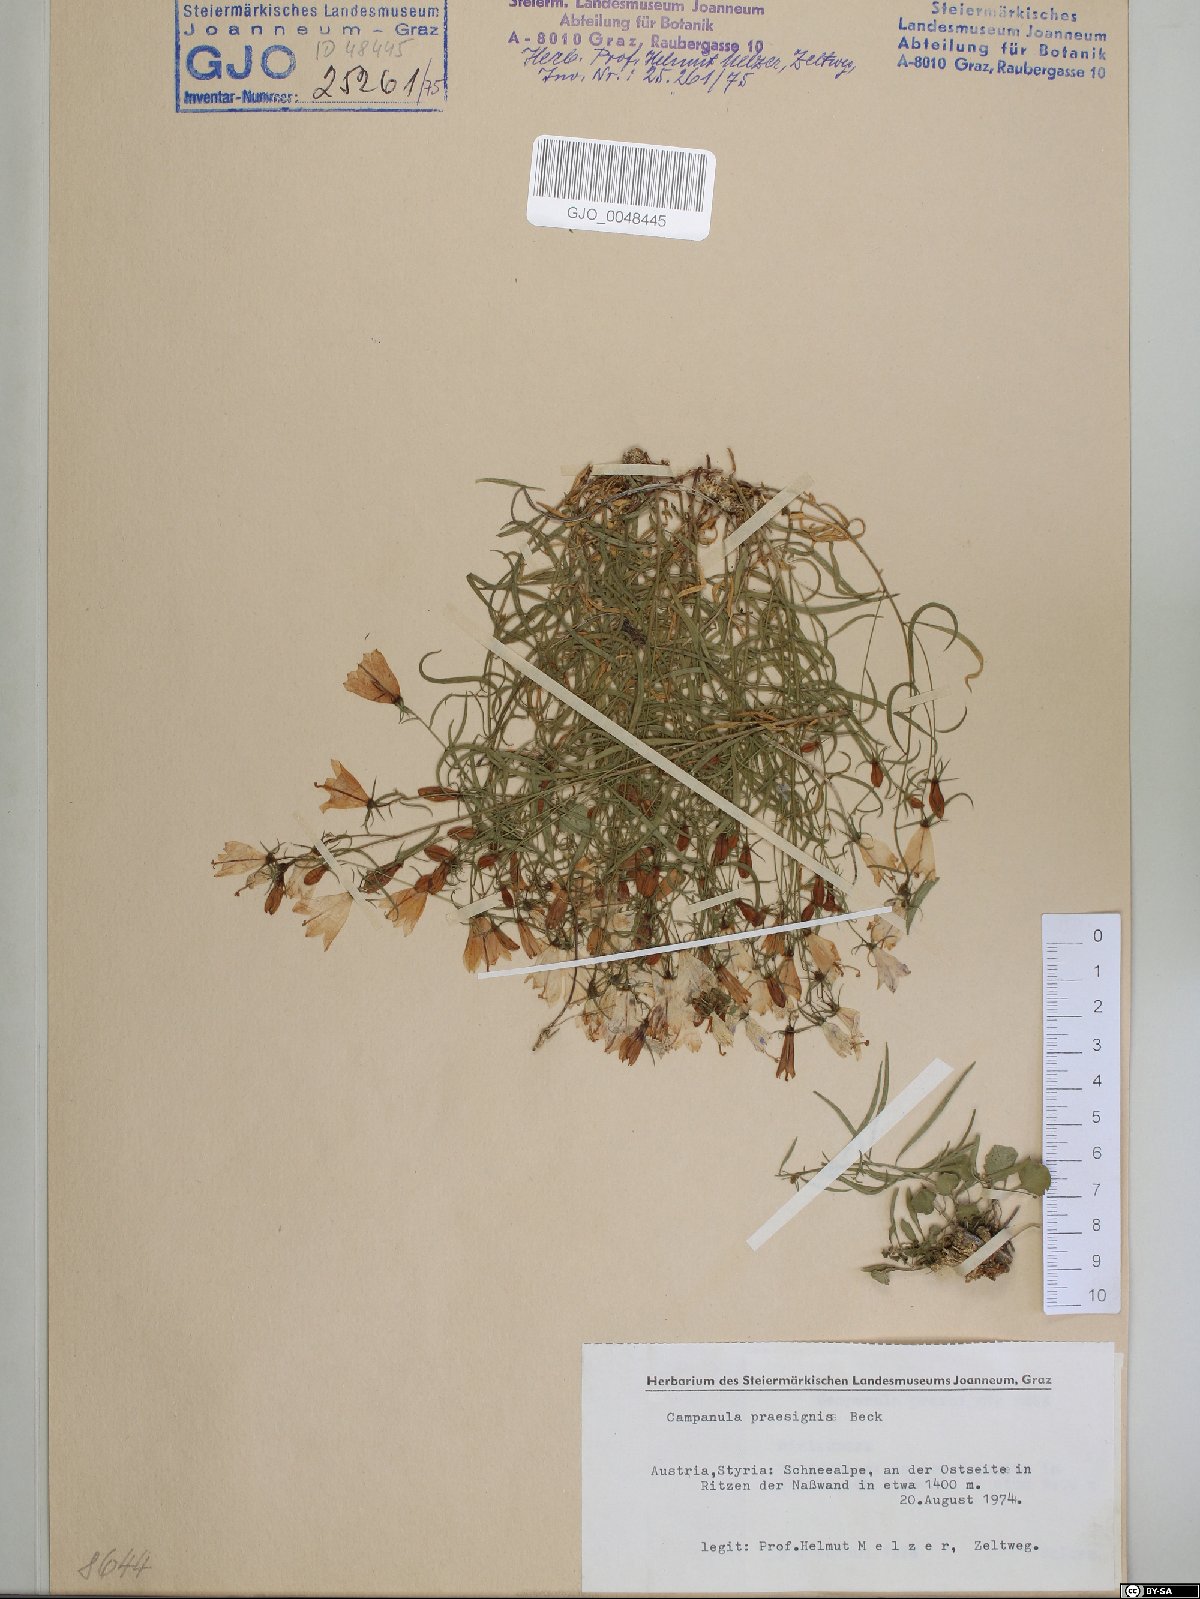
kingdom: Plantae
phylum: Tracheophyta
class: Magnoliopsida
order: Asterales
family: Campanulaceae
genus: Campanula
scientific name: Campanula praesignis
